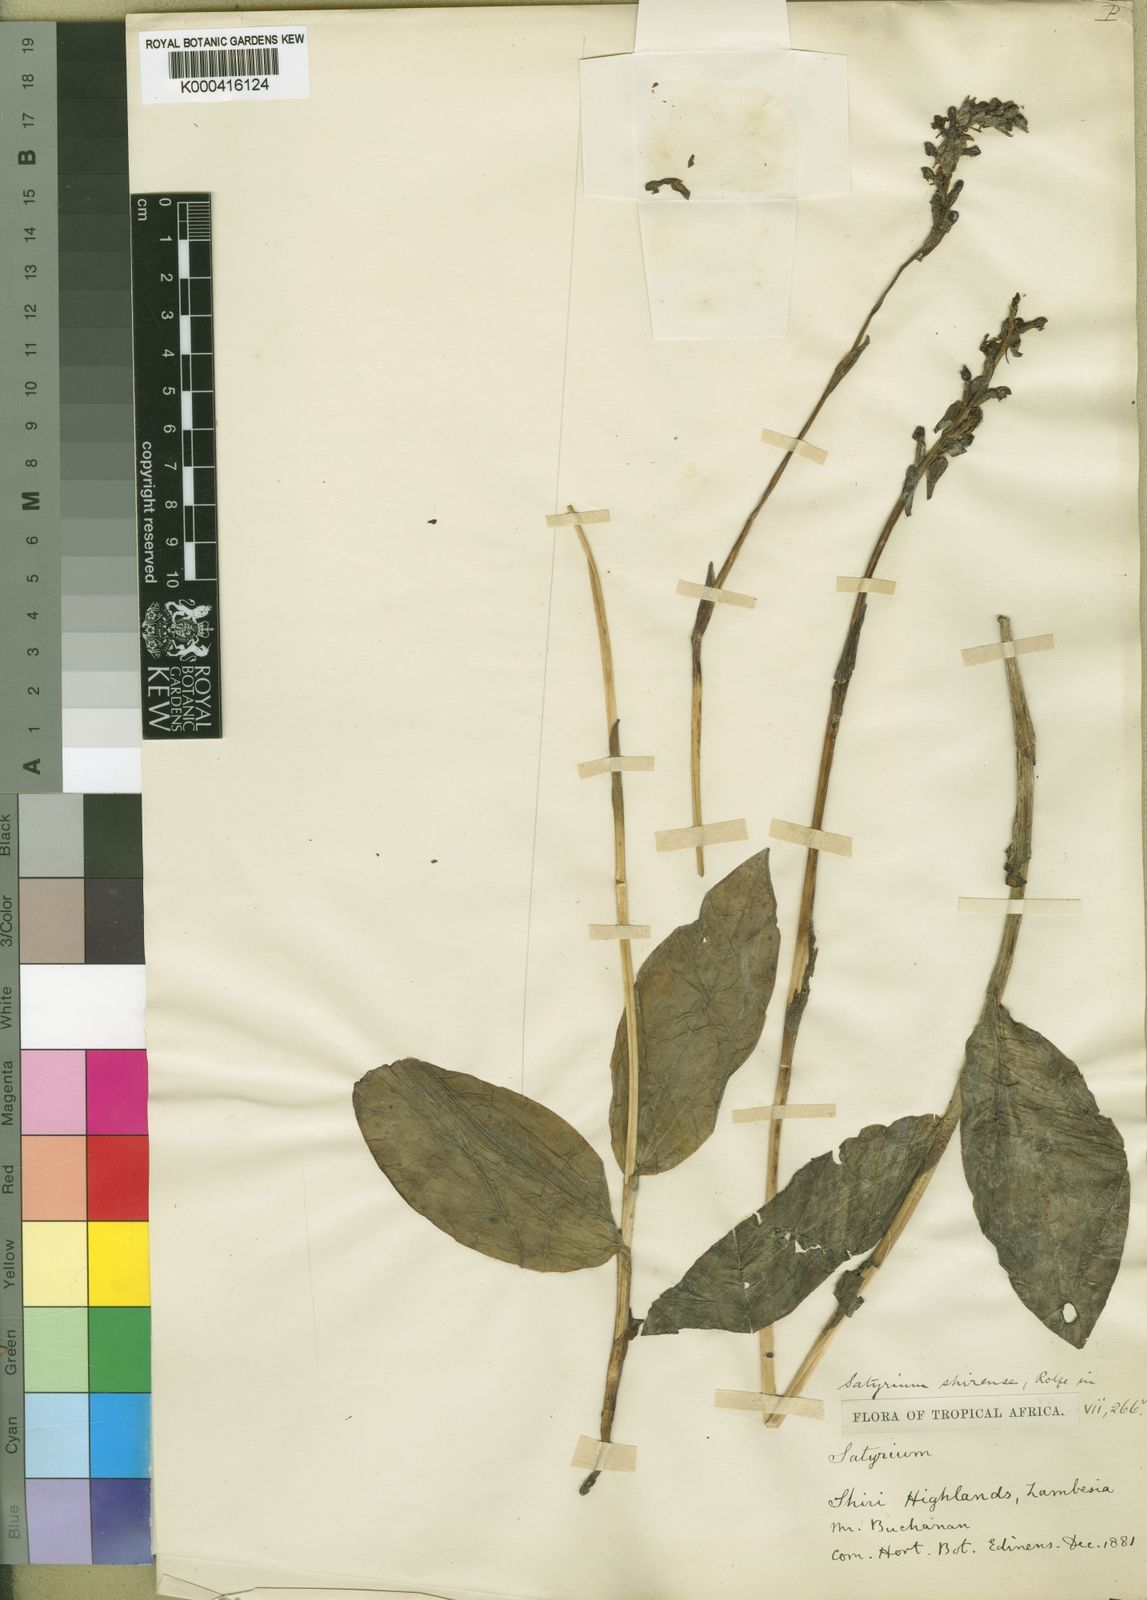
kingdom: Plantae
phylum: Tracheophyta
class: Liliopsida
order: Asparagales
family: Orchidaceae
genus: Satyrium
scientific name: Satyrium shirense
